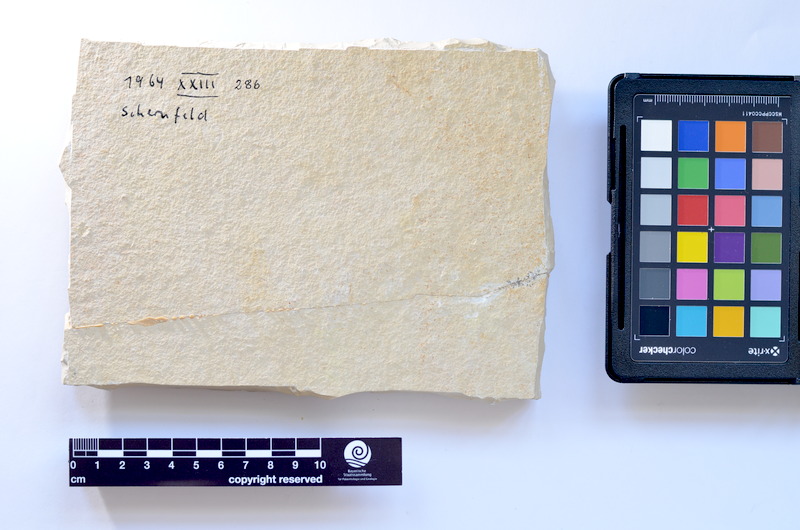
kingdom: Animalia
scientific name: Animalia
